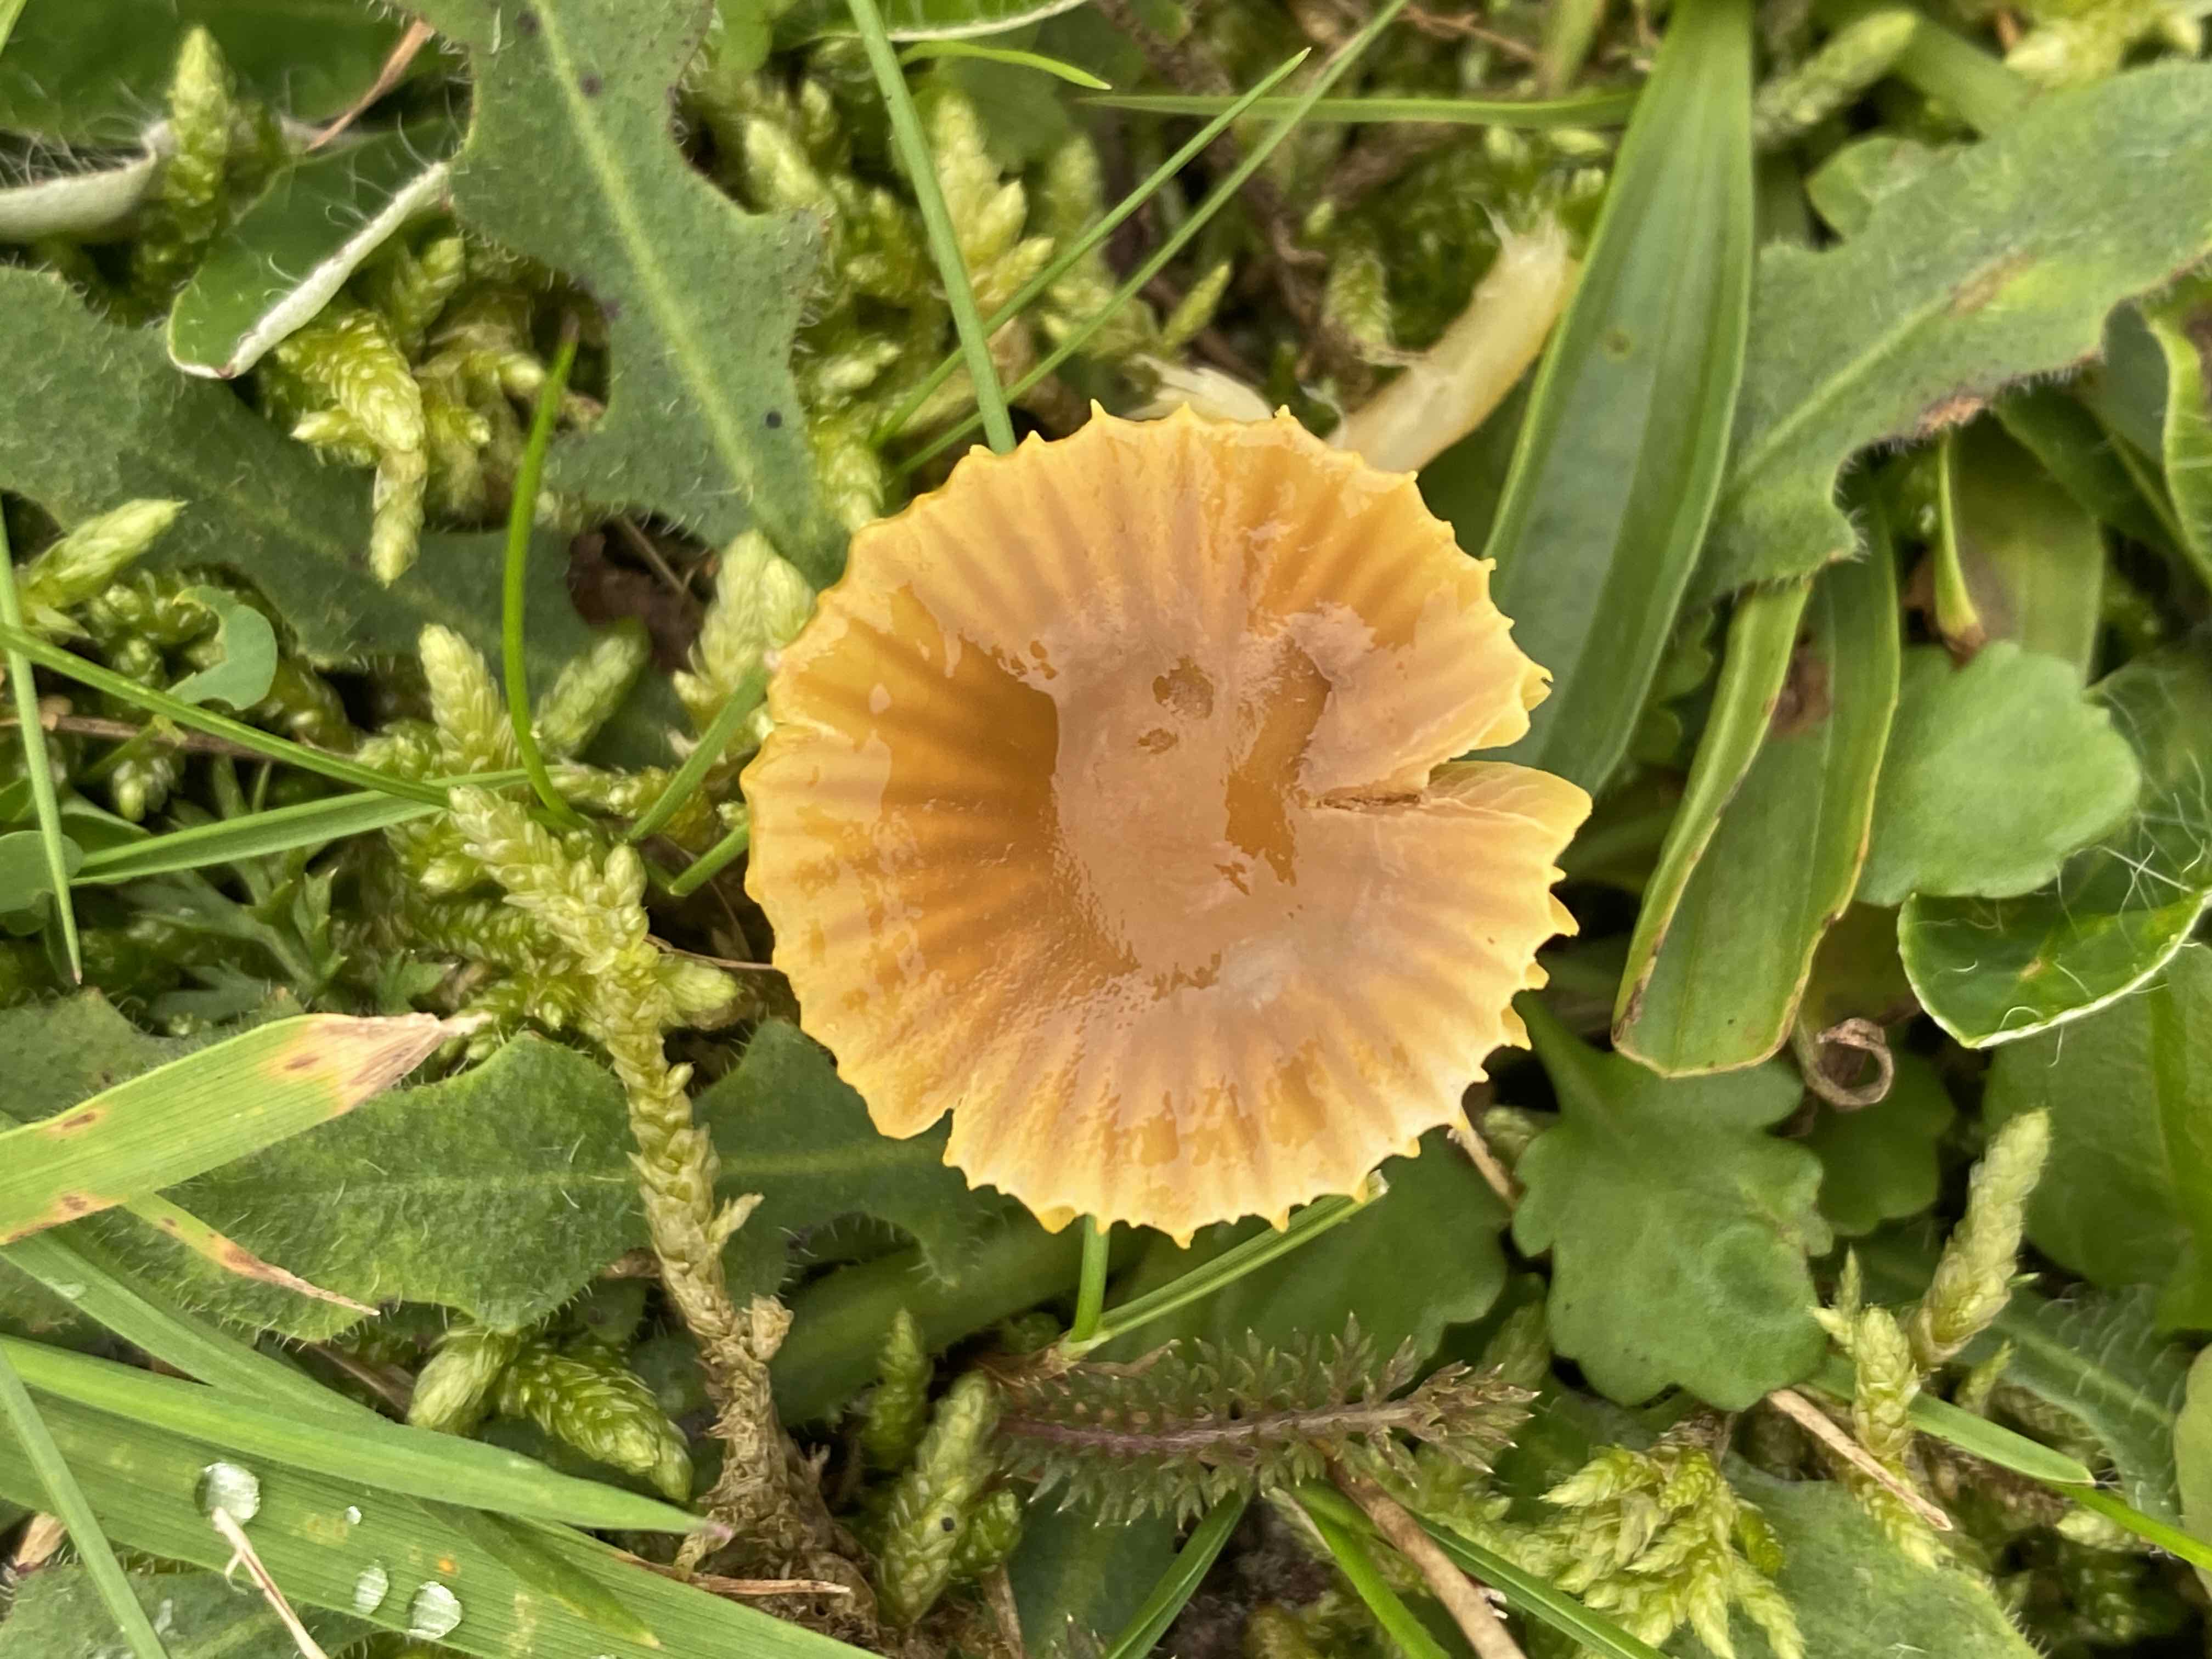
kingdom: Fungi
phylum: Basidiomycota
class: Agaricomycetes
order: Agaricales
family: Hygrophoraceae
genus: Gliophorus
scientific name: Gliophorus psittacinus
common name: papegøje-vokshat
